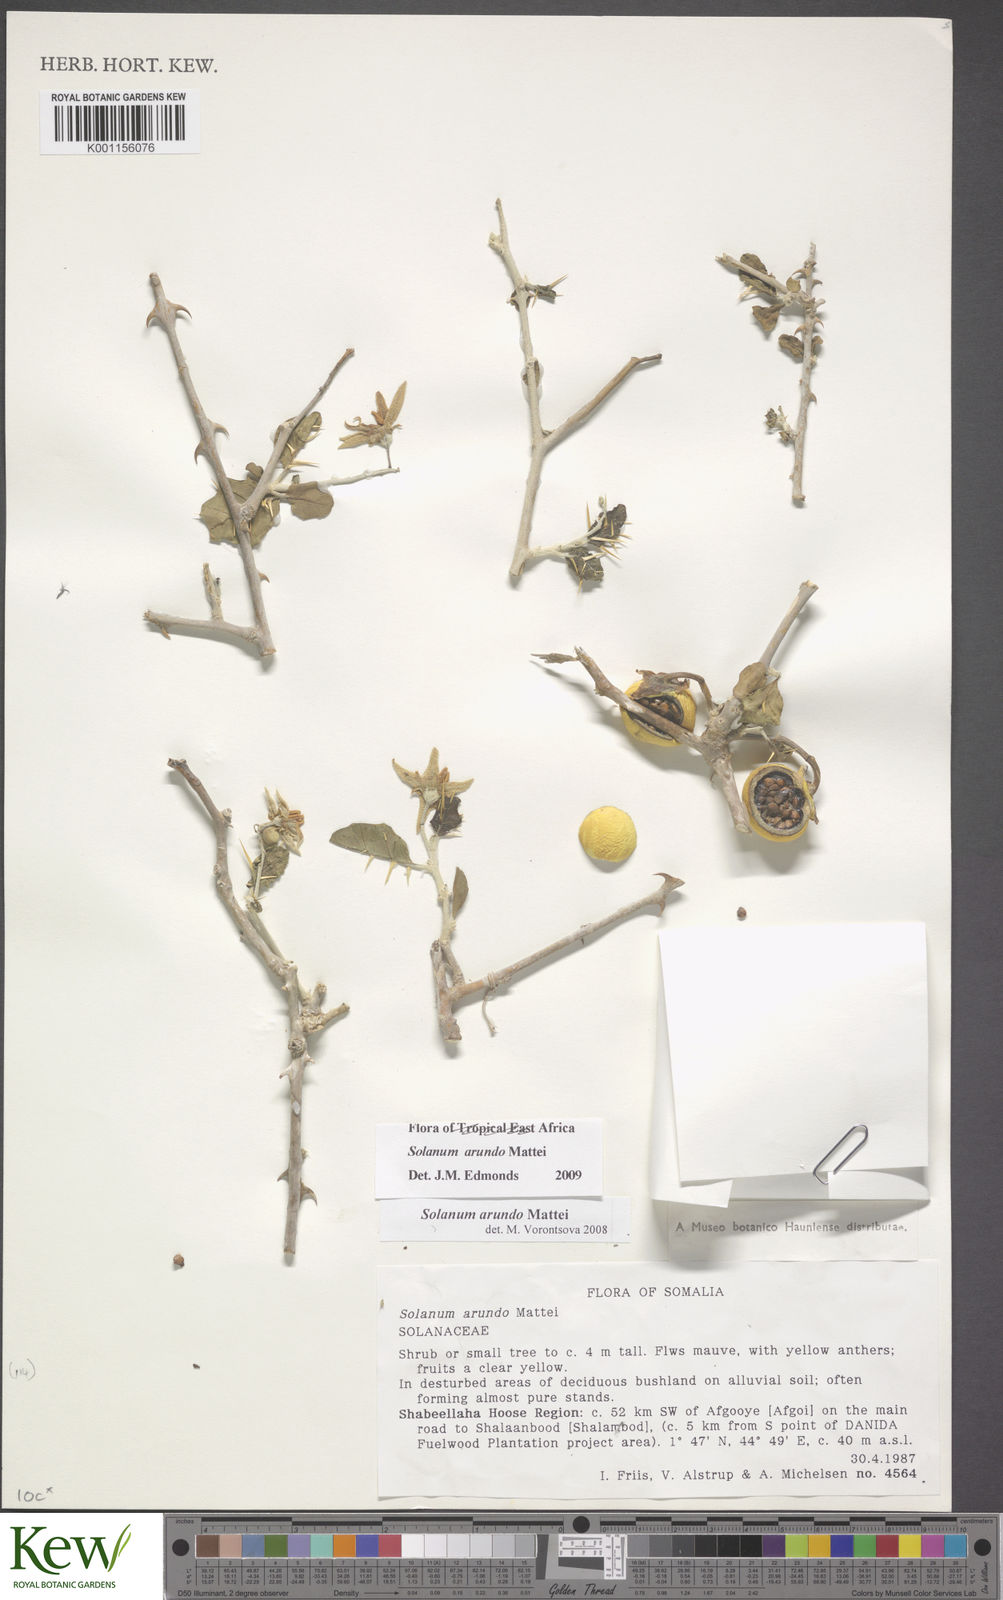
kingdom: Plantae
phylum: Tracheophyta
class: Magnoliopsida
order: Solanales
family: Solanaceae
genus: Solanum
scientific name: Solanum arundo
